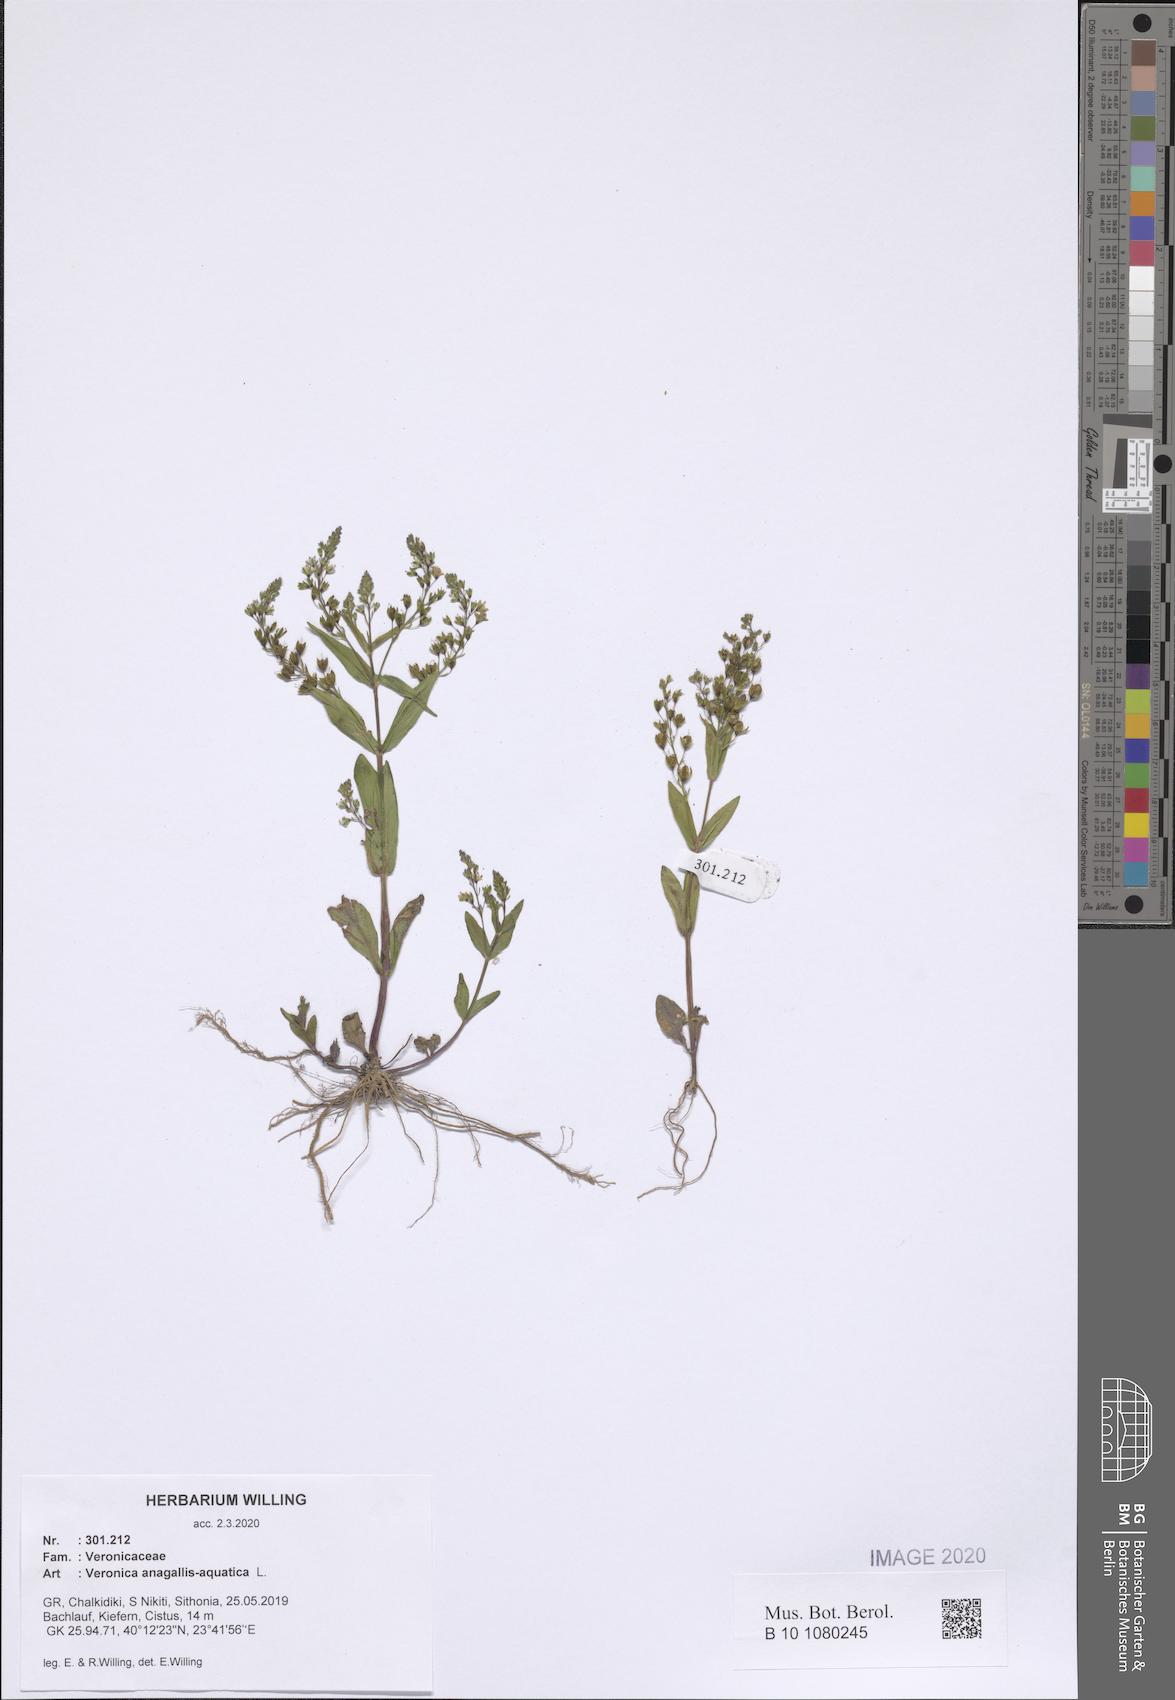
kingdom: Plantae
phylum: Tracheophyta
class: Magnoliopsida
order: Lamiales
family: Plantaginaceae
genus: Veronica
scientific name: Veronica anagallis-aquatica
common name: Water speedwell
